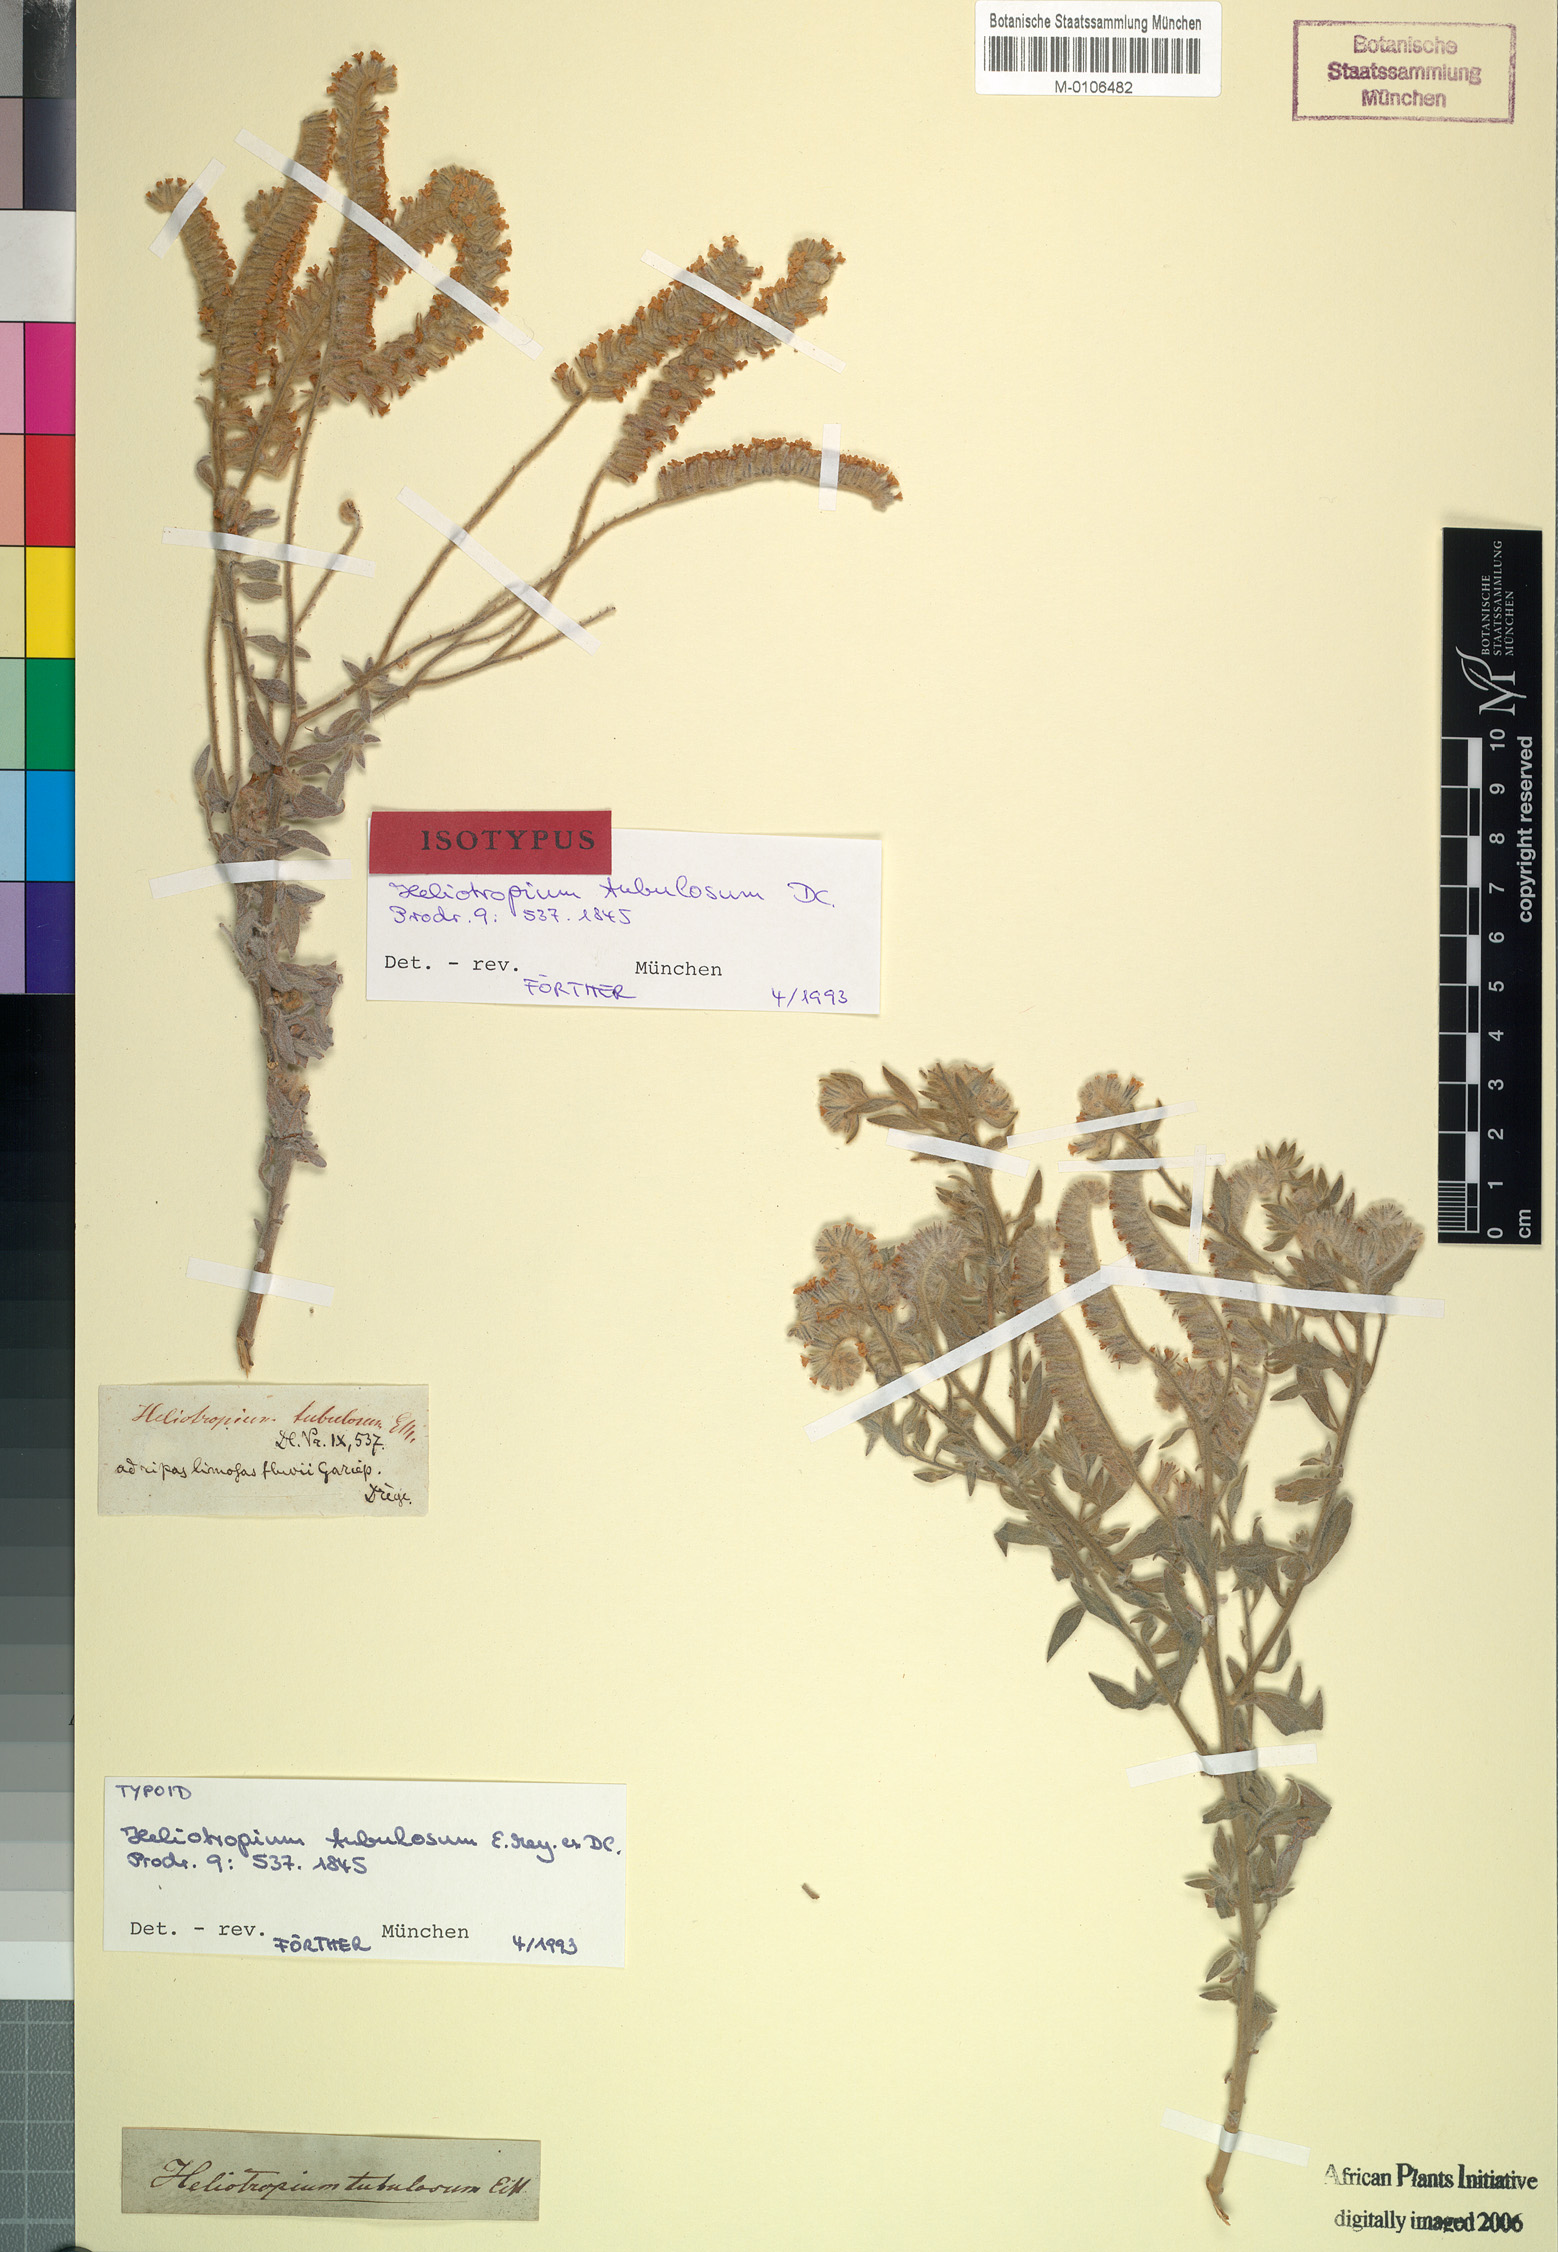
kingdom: Plantae
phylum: Tracheophyta
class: Magnoliopsida
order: Boraginales
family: Heliotropiaceae
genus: Heliotropium
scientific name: Heliotropium tubulosum
